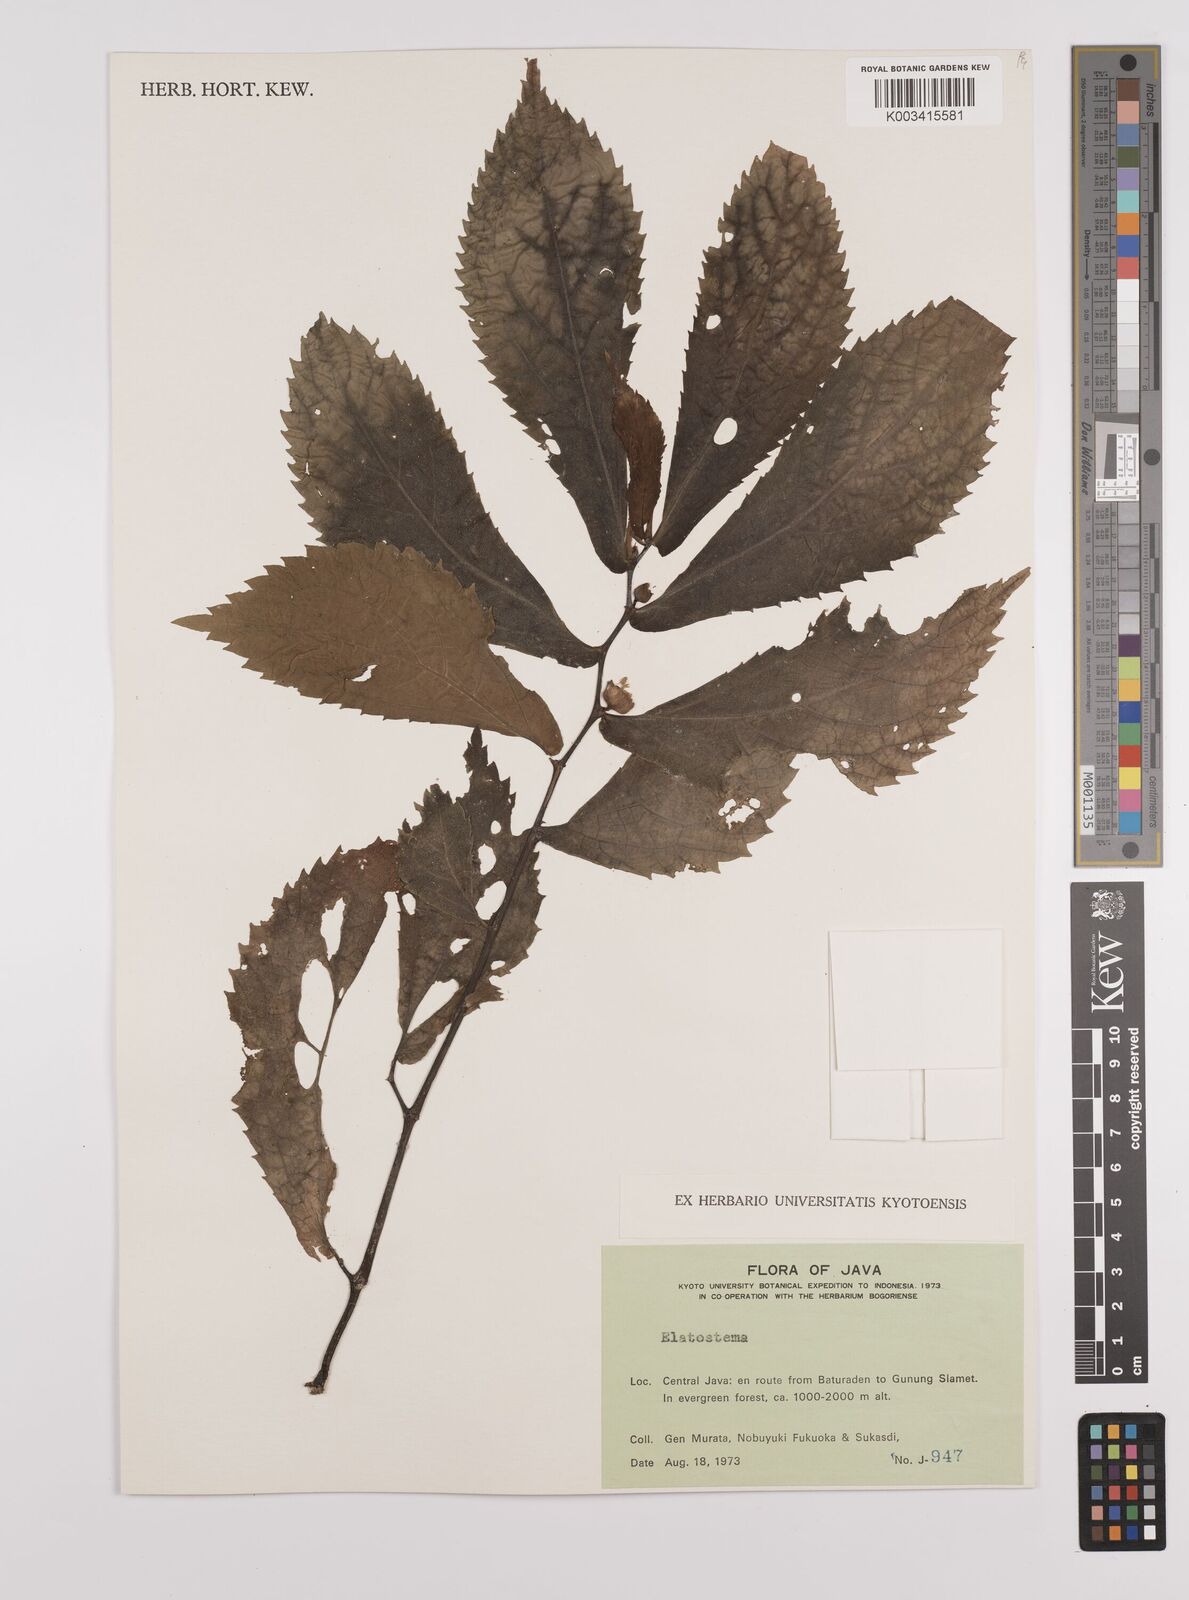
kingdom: Plantae
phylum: Tracheophyta
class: Magnoliopsida
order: Rosales
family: Urticaceae
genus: Elatostema
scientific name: Elatostema
